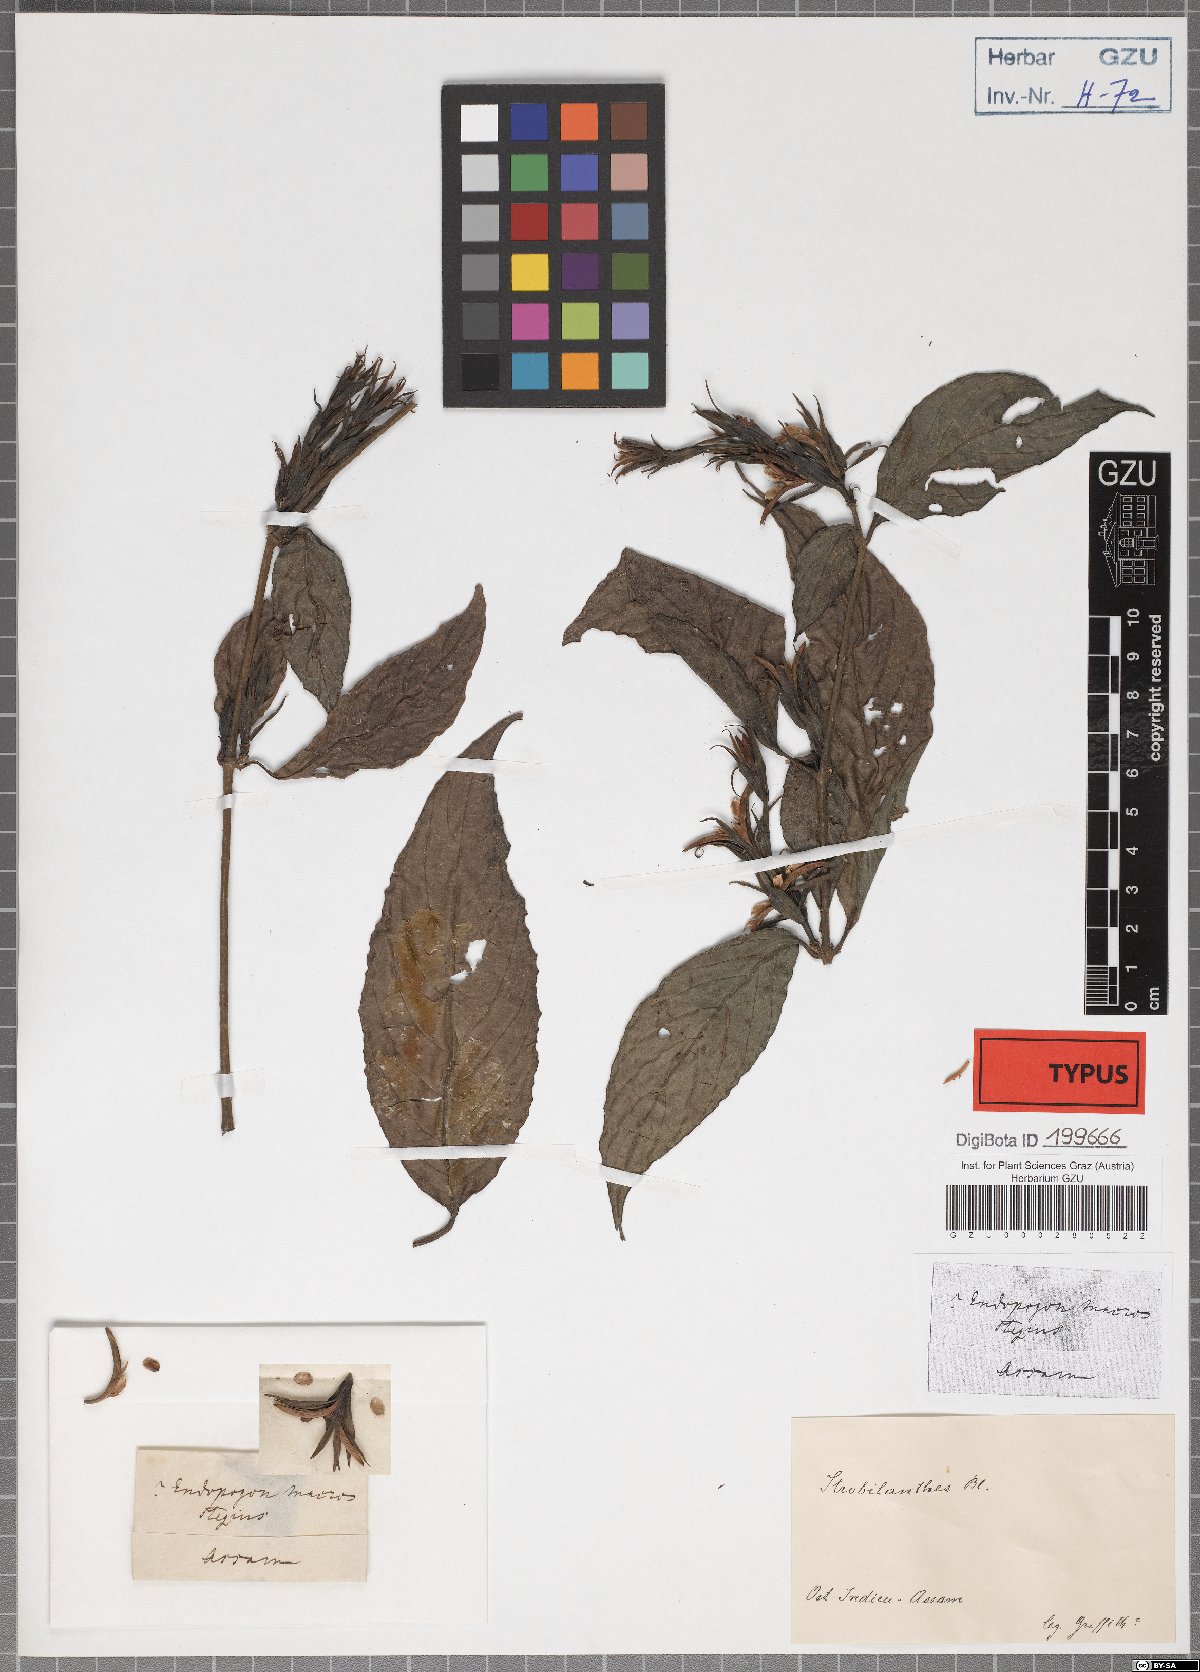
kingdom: Plantae
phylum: Tracheophyta
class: Magnoliopsida
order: Lamiales
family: Acanthaceae
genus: Strobilanthes
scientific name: Strobilanthes fimbriata
